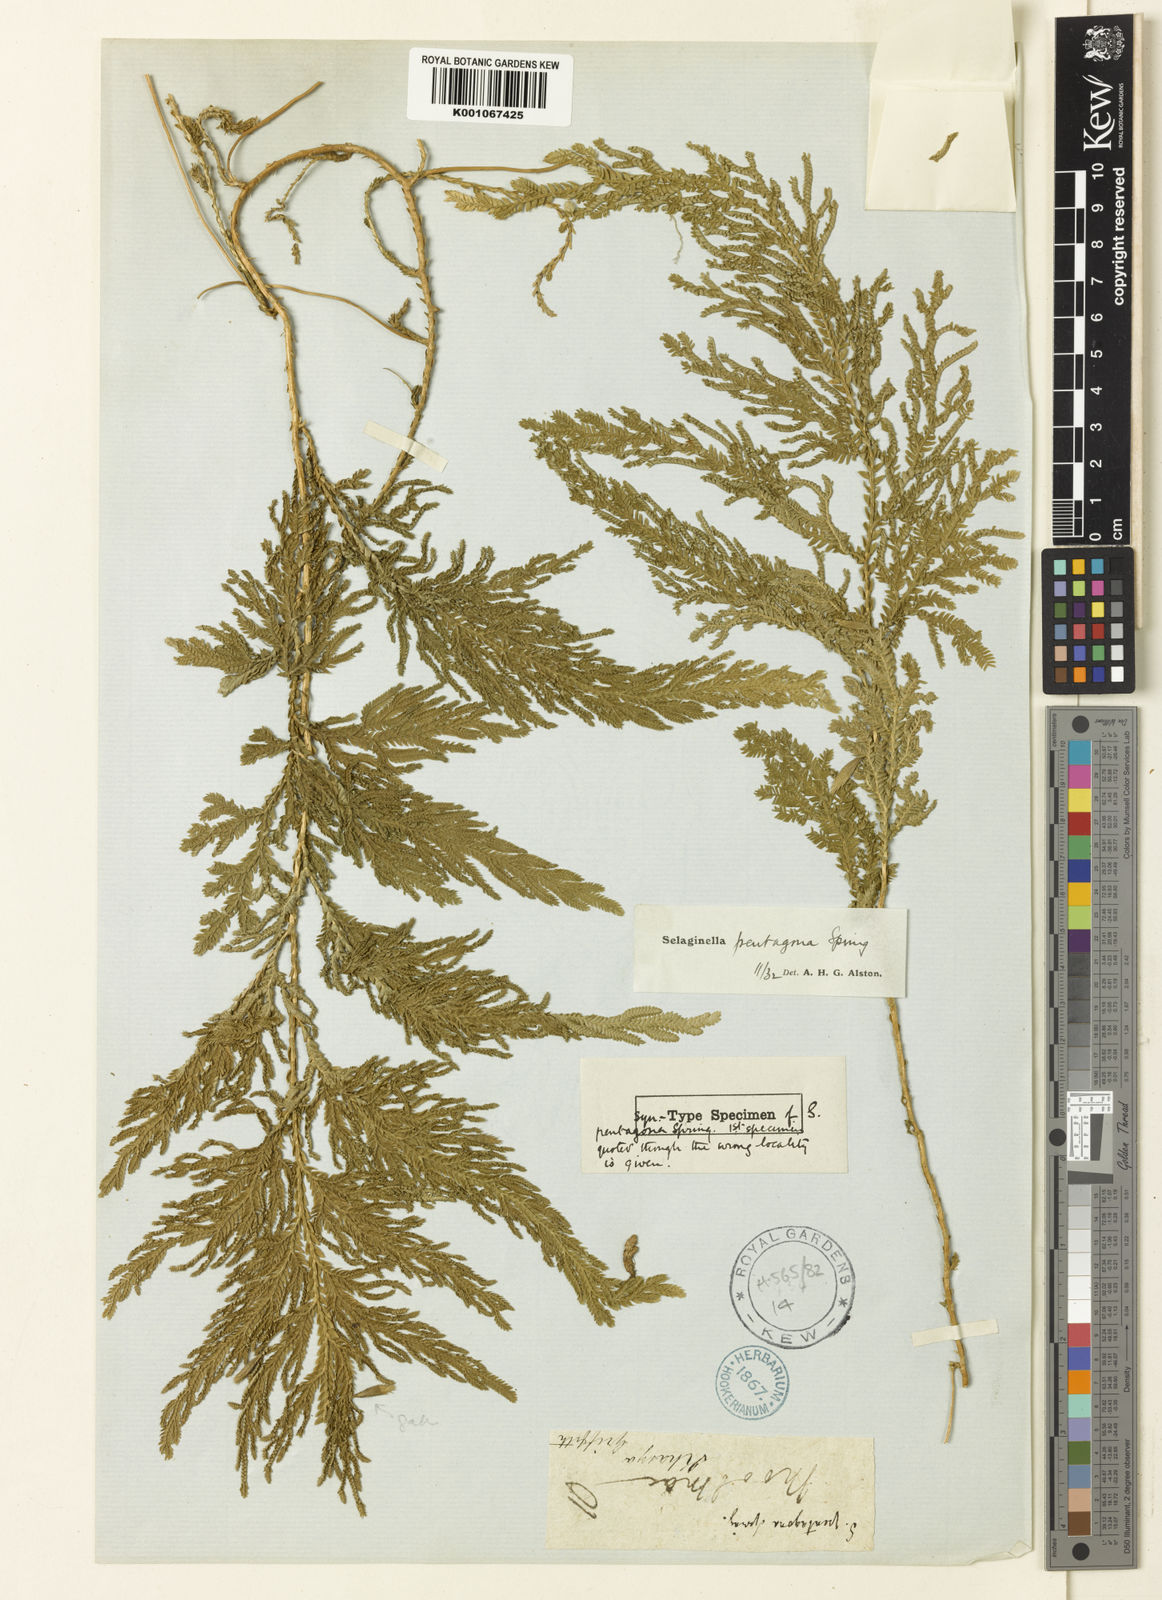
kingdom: Plantae
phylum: Tracheophyta
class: Lycopodiopsida
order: Selaginellales
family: Selaginellaceae
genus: Selaginella
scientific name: Selaginella pentagona
